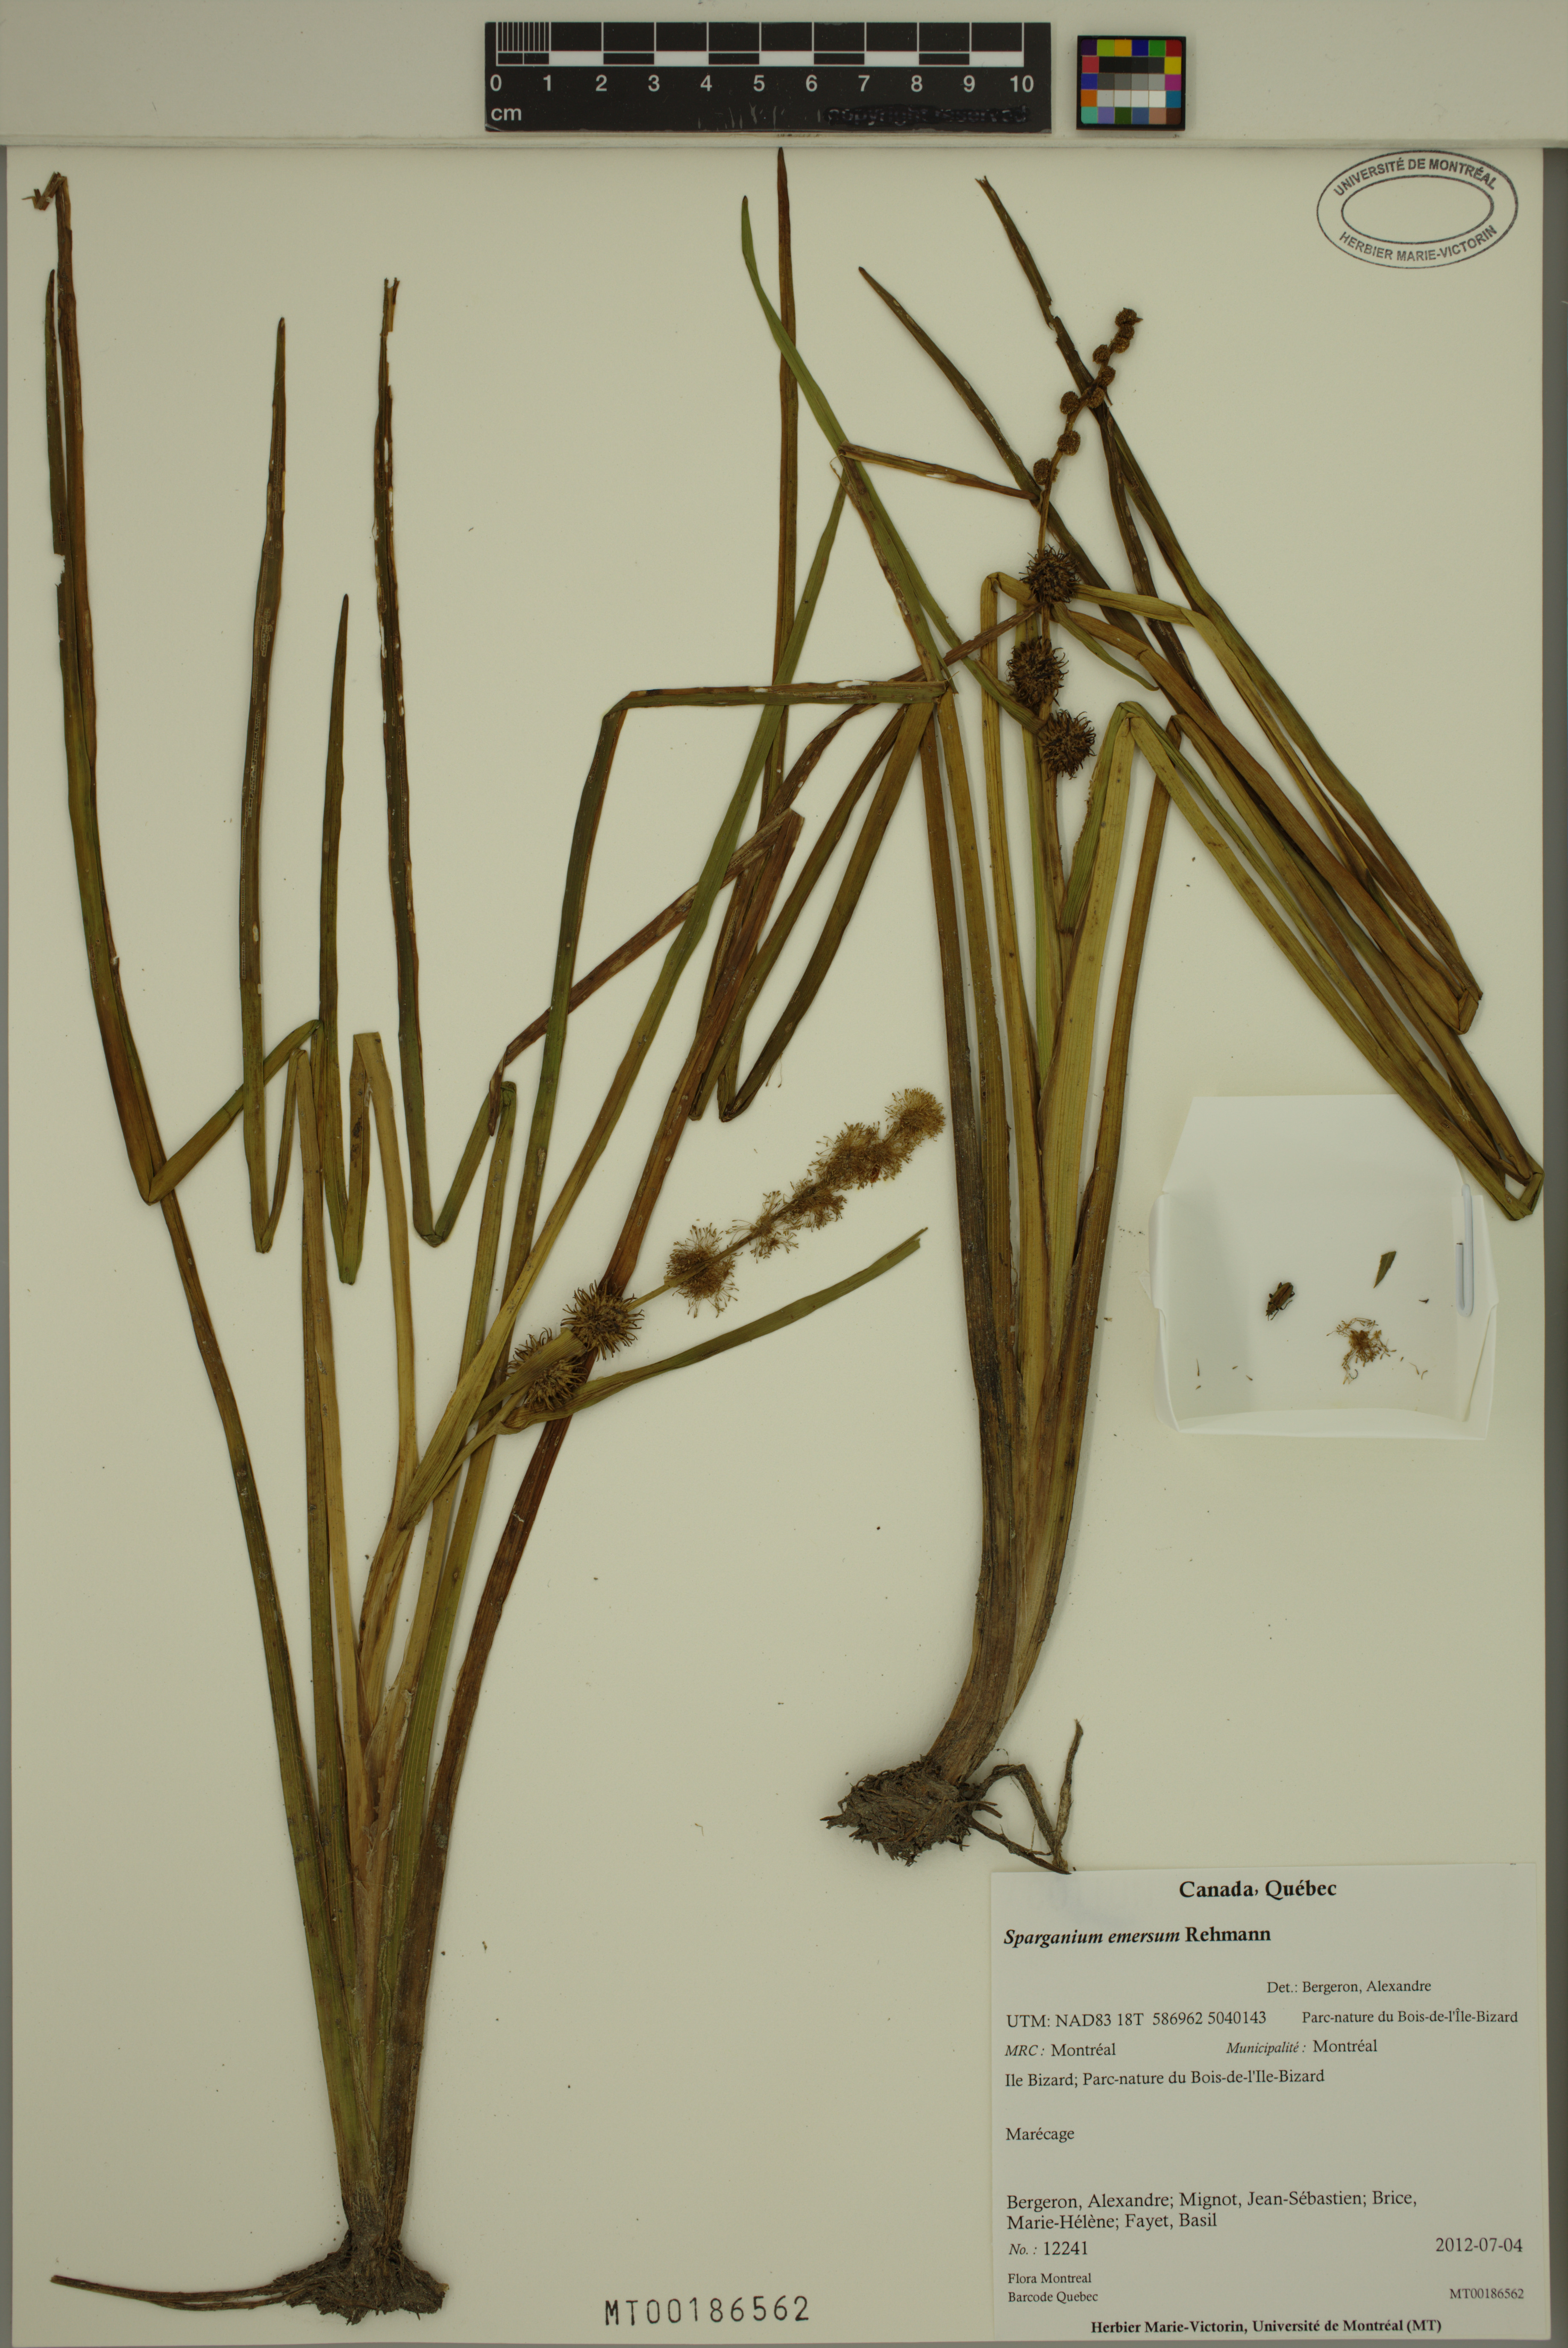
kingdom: Plantae
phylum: Tracheophyta
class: Liliopsida
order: Poales
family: Typhaceae
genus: Sparganium
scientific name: Sparganium emersum
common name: Unbranched bur-reed
